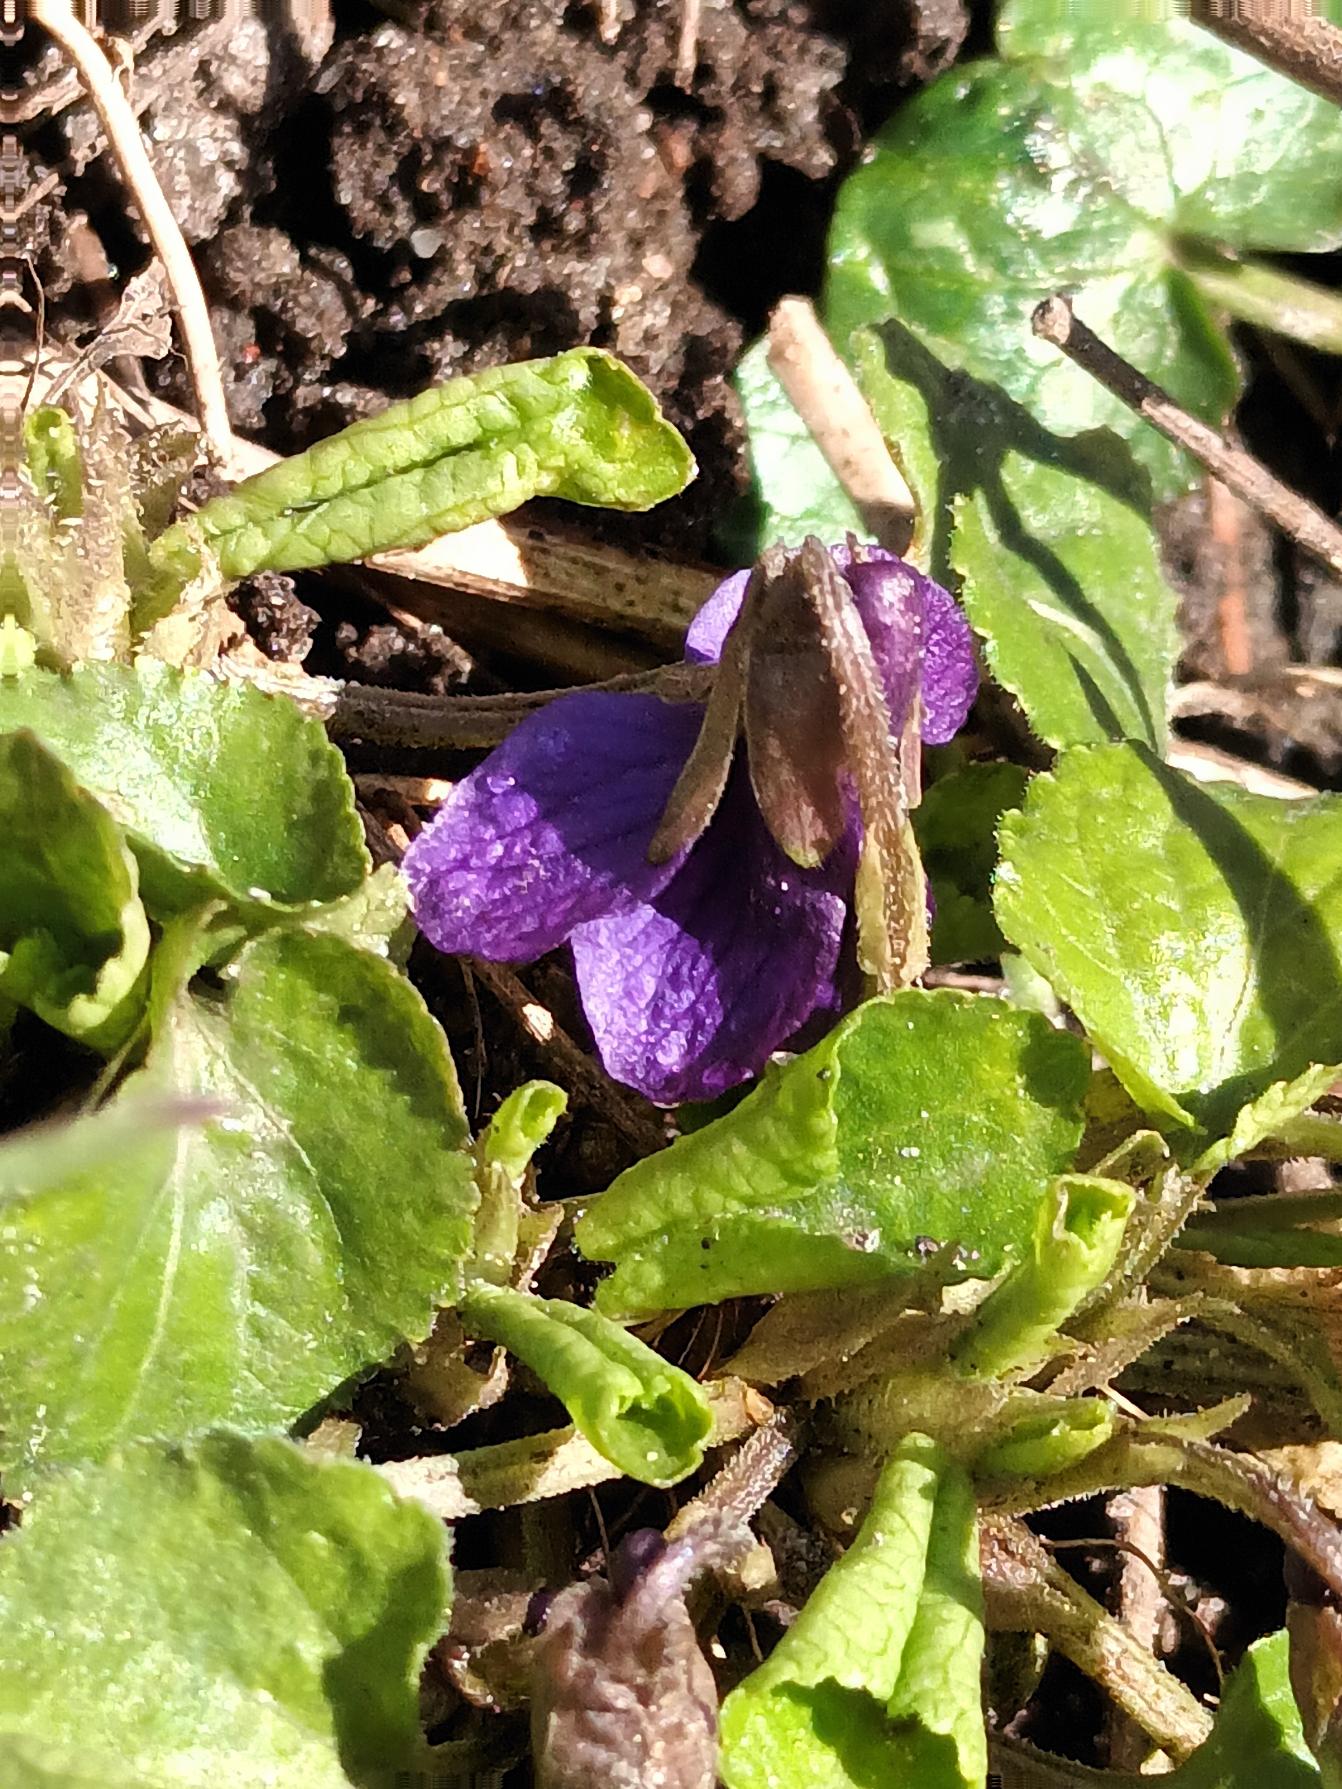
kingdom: Plantae
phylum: Tracheophyta
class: Magnoliopsida
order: Malpighiales
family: Violaceae
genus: Viola
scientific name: Viola odorata
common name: Marts-viol
